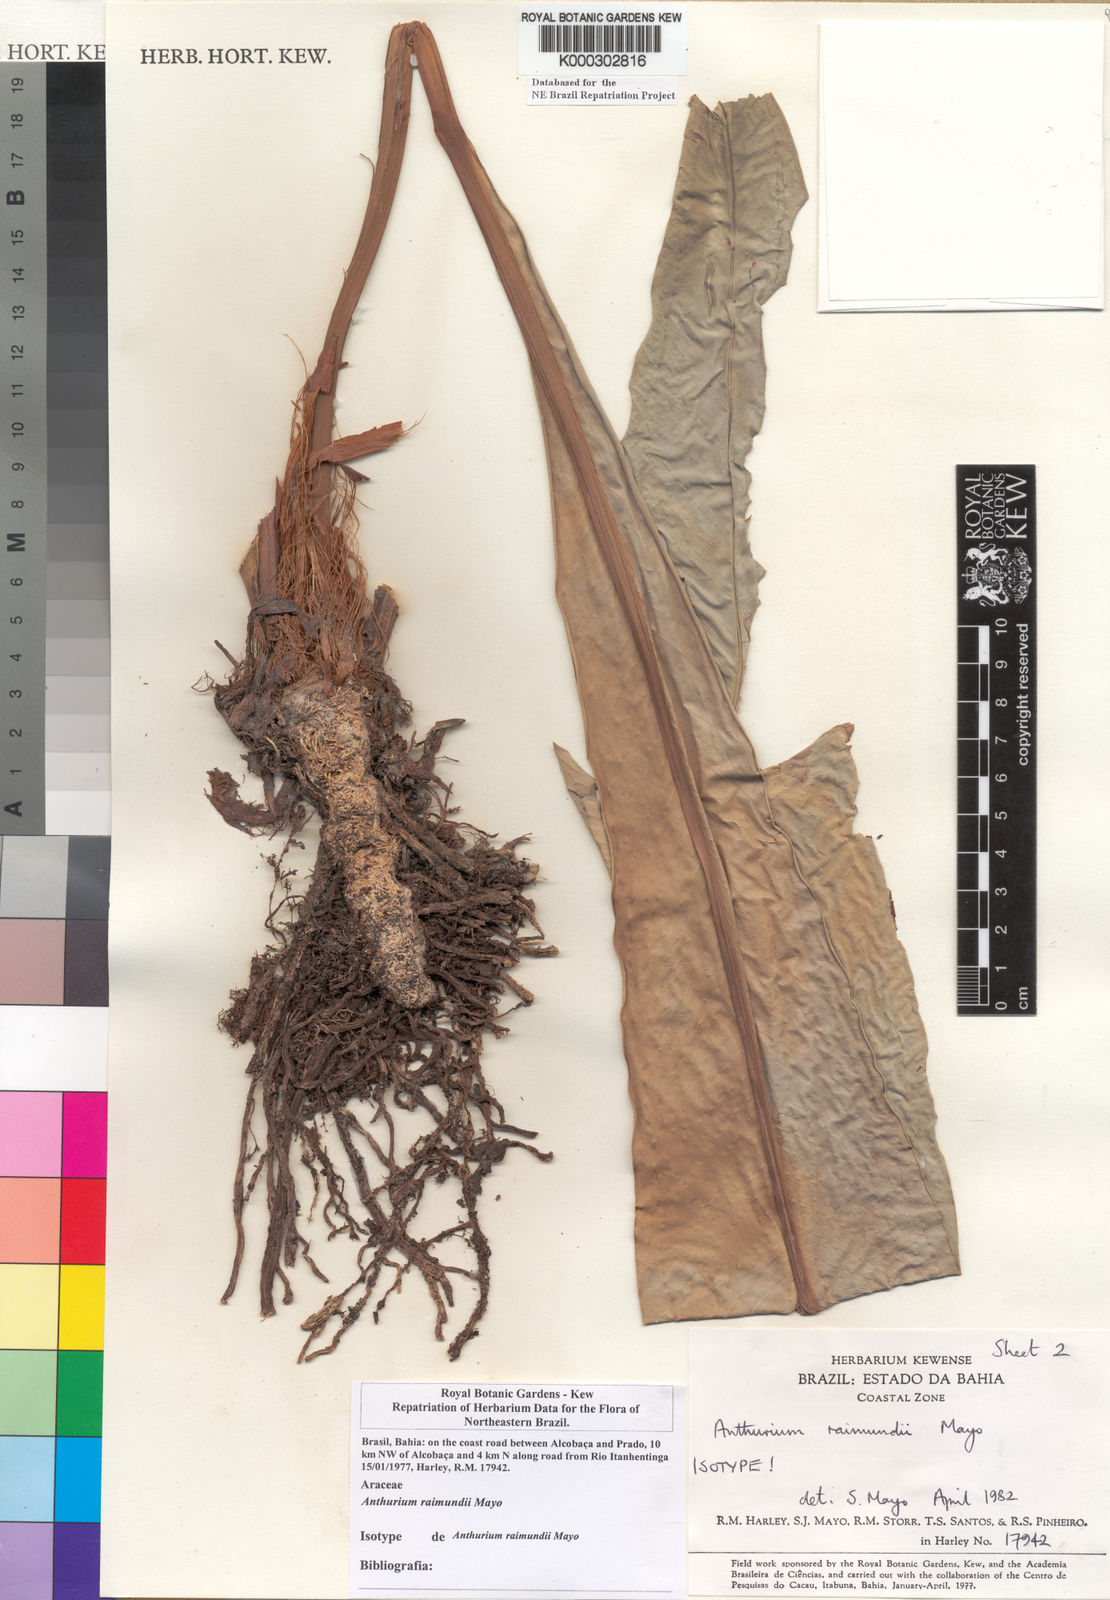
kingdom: Plantae
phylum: Tracheophyta
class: Liliopsida
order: Alismatales
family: Araceae
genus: Anthurium
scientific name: Anthurium raimundii
